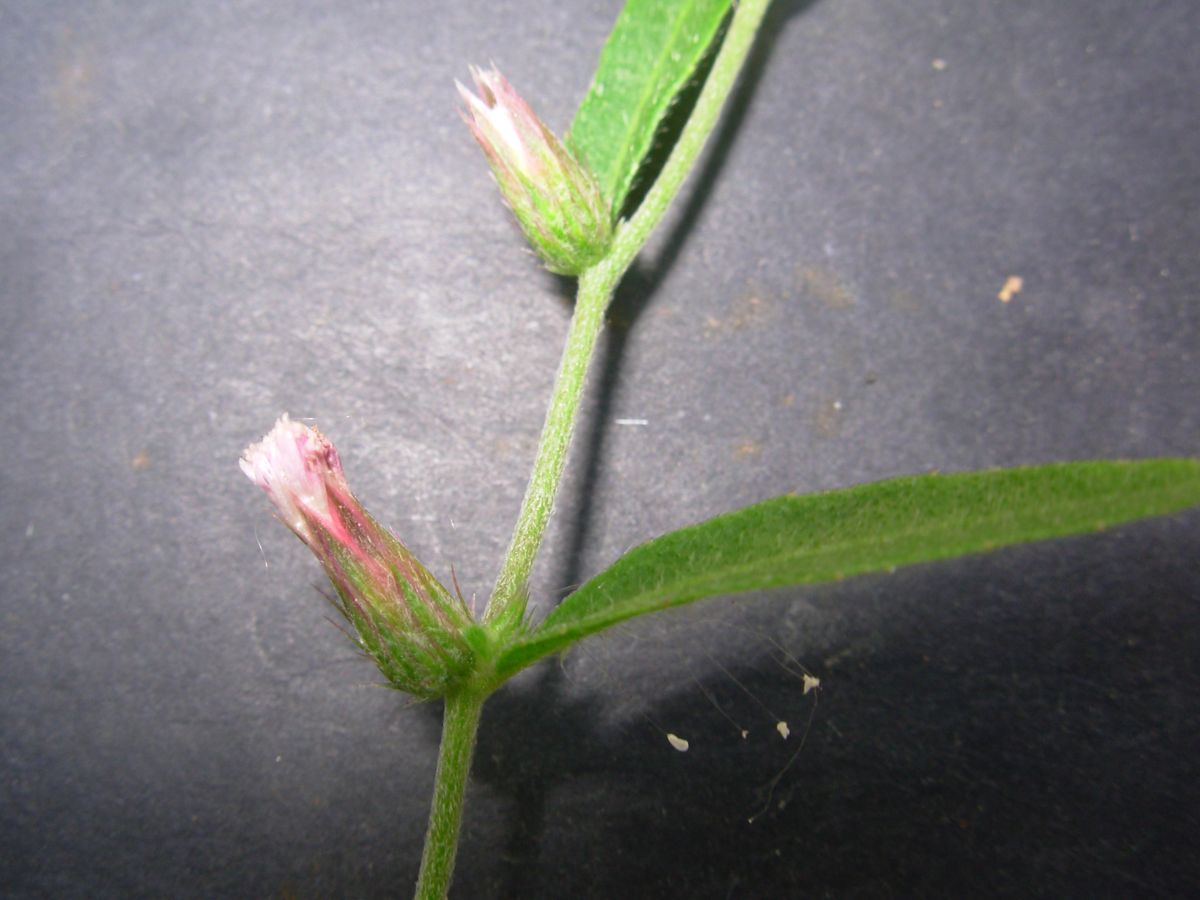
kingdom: Plantae
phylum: Tracheophyta
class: Magnoliopsida
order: Asterales
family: Asteraceae
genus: Lepidaploa
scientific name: Lepidaploa acilepis
